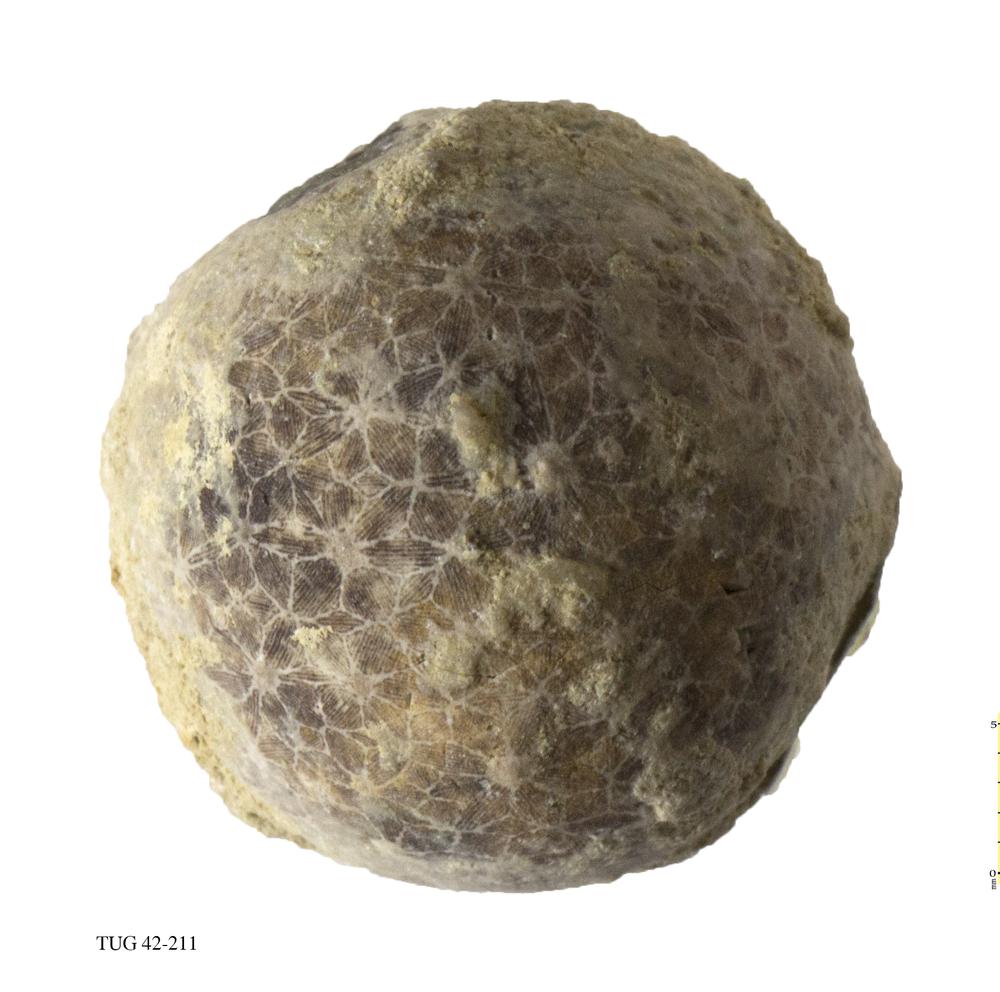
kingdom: Animalia
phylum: Echinodermata
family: Echinosphaeritidae
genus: Echinosphaerites
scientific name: Echinosphaerites Echinus aurantium
